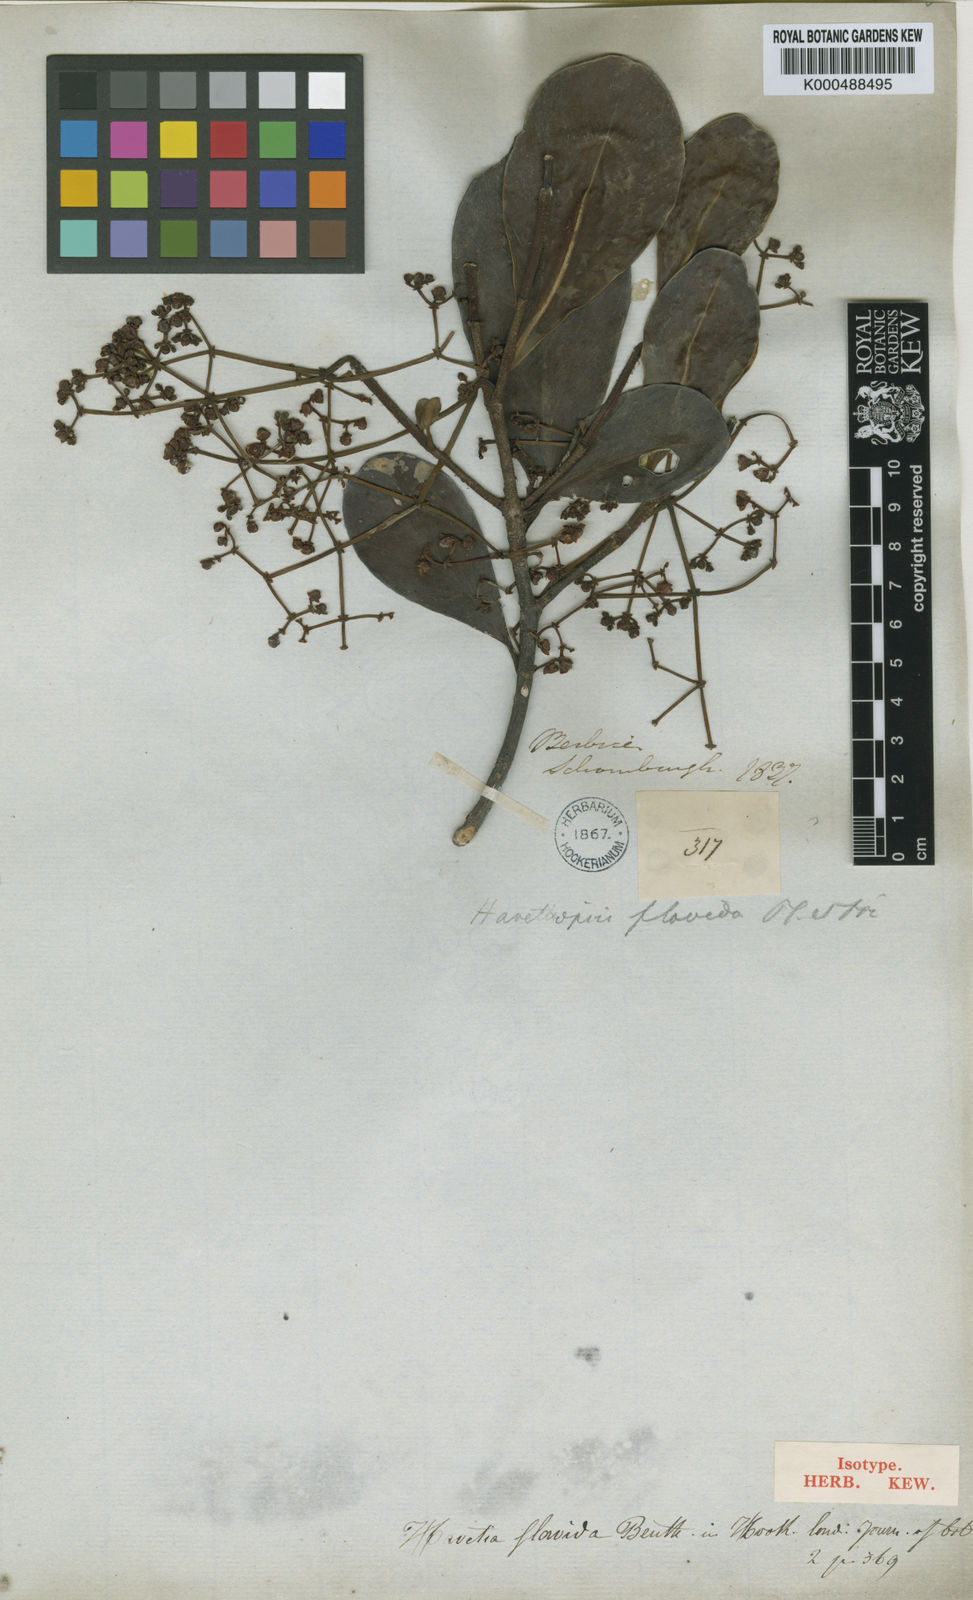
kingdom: Plantae
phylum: Tracheophyta
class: Magnoliopsida
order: Malpighiales
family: Clusiaceae
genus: Clusia
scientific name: Clusia flavida
